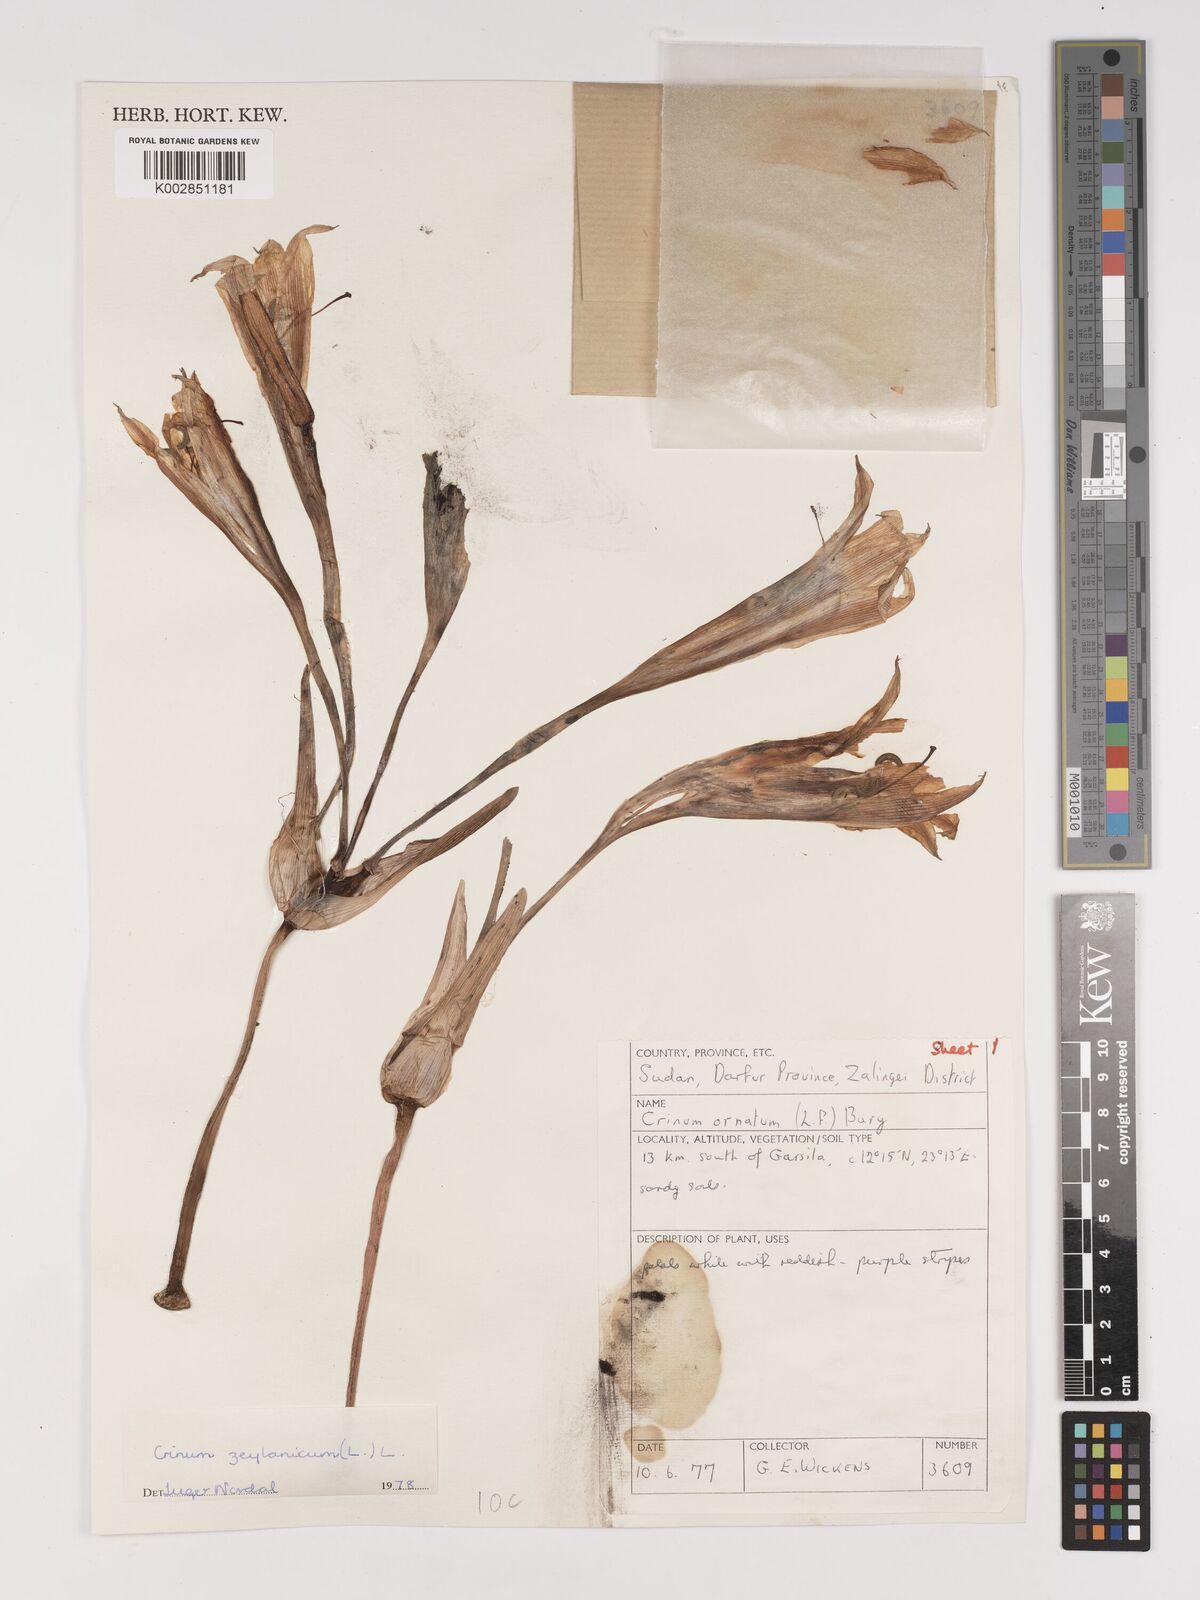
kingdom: Plantae
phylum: Tracheophyta
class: Liliopsida
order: Asparagales
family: Amaryllidaceae
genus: Crinum
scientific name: Crinum zeylanicum
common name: Ceylon swamplily
